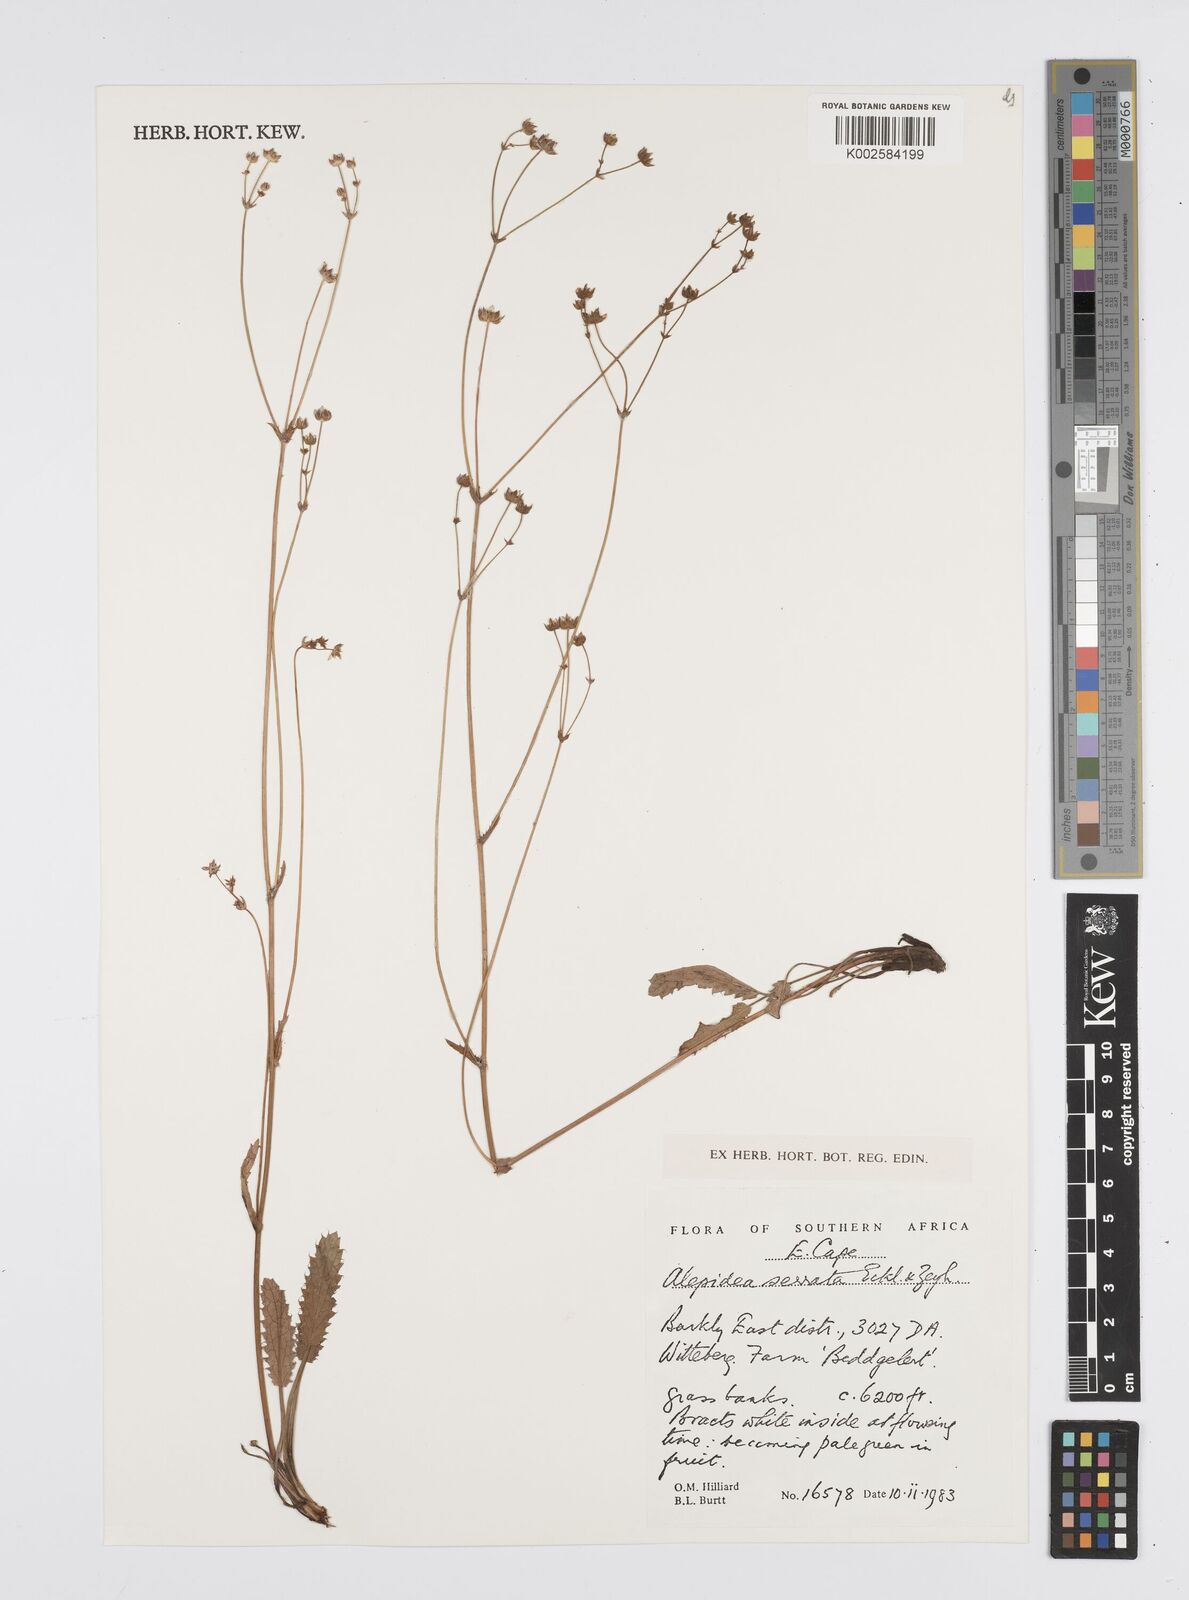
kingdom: Plantae
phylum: Tracheophyta
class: Magnoliopsida
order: Apiales
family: Apiaceae
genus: Alepidea
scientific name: Alepidea serrata
